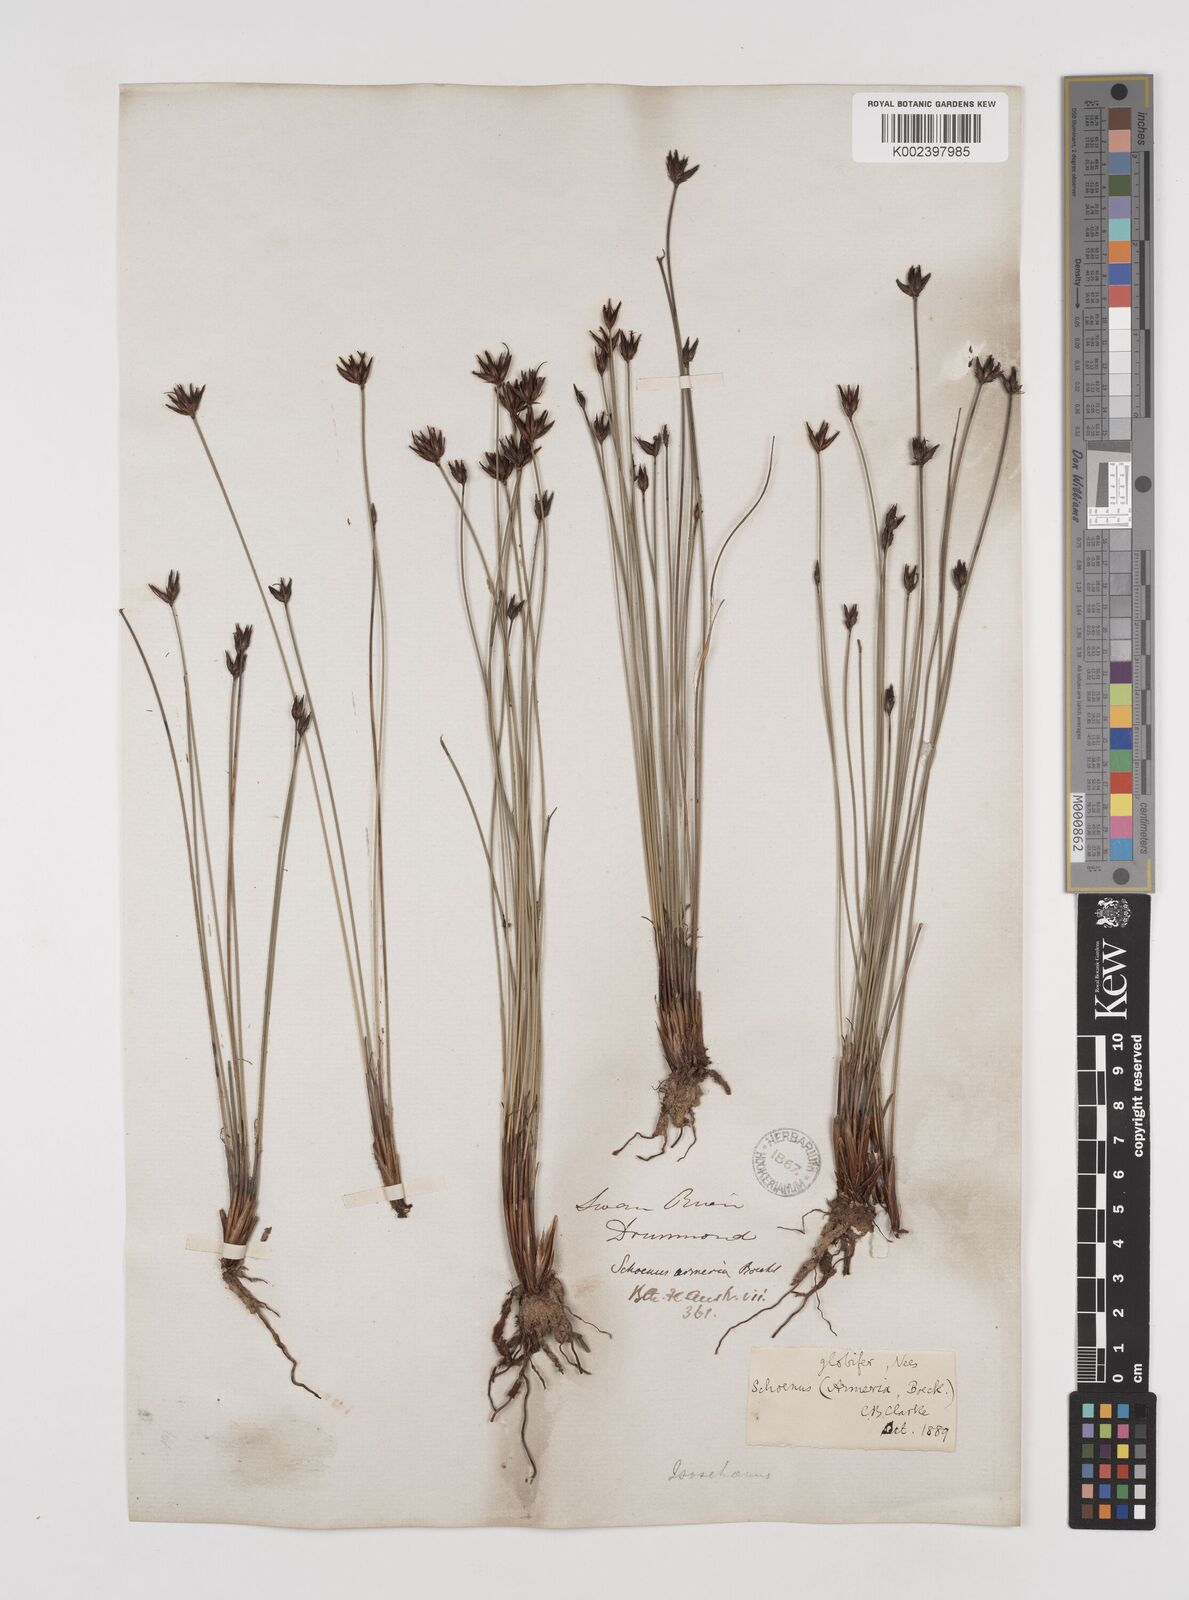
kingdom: Plantae
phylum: Tracheophyta
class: Liliopsida
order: Poales
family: Cyperaceae
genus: Schoenus
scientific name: Schoenus globifer
